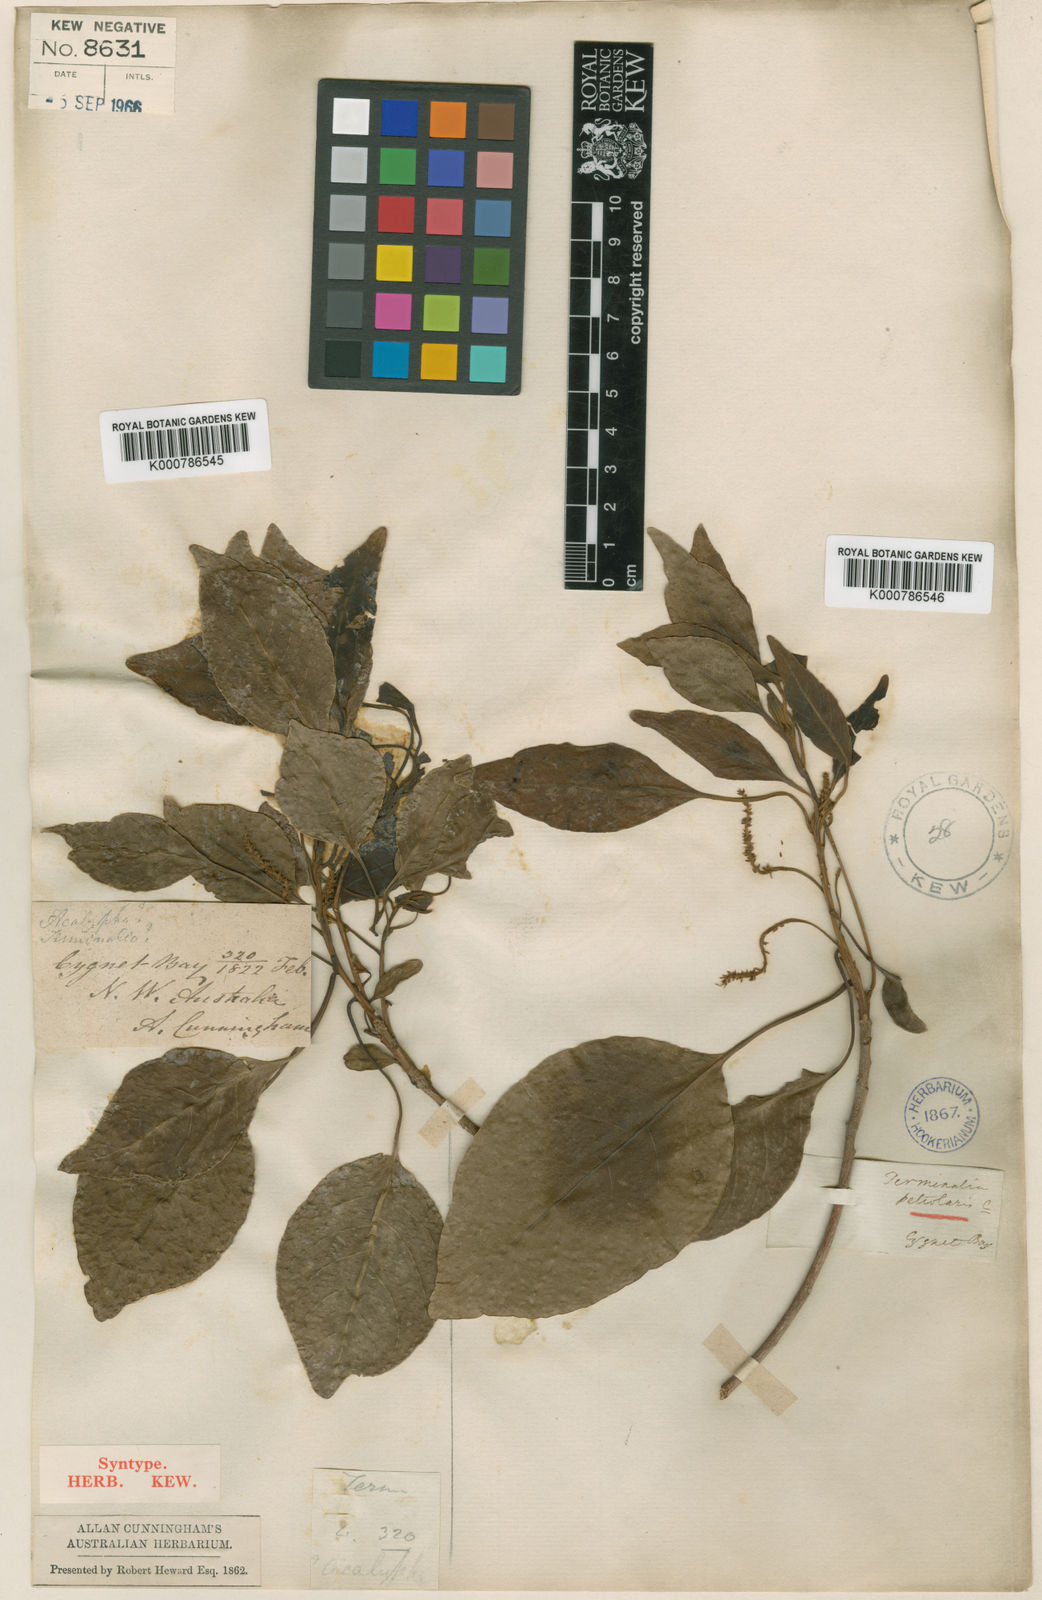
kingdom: Plantae
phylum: Tracheophyta
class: Magnoliopsida
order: Myrtales
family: Combretaceae
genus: Terminalia
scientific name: Terminalia petiolaris
